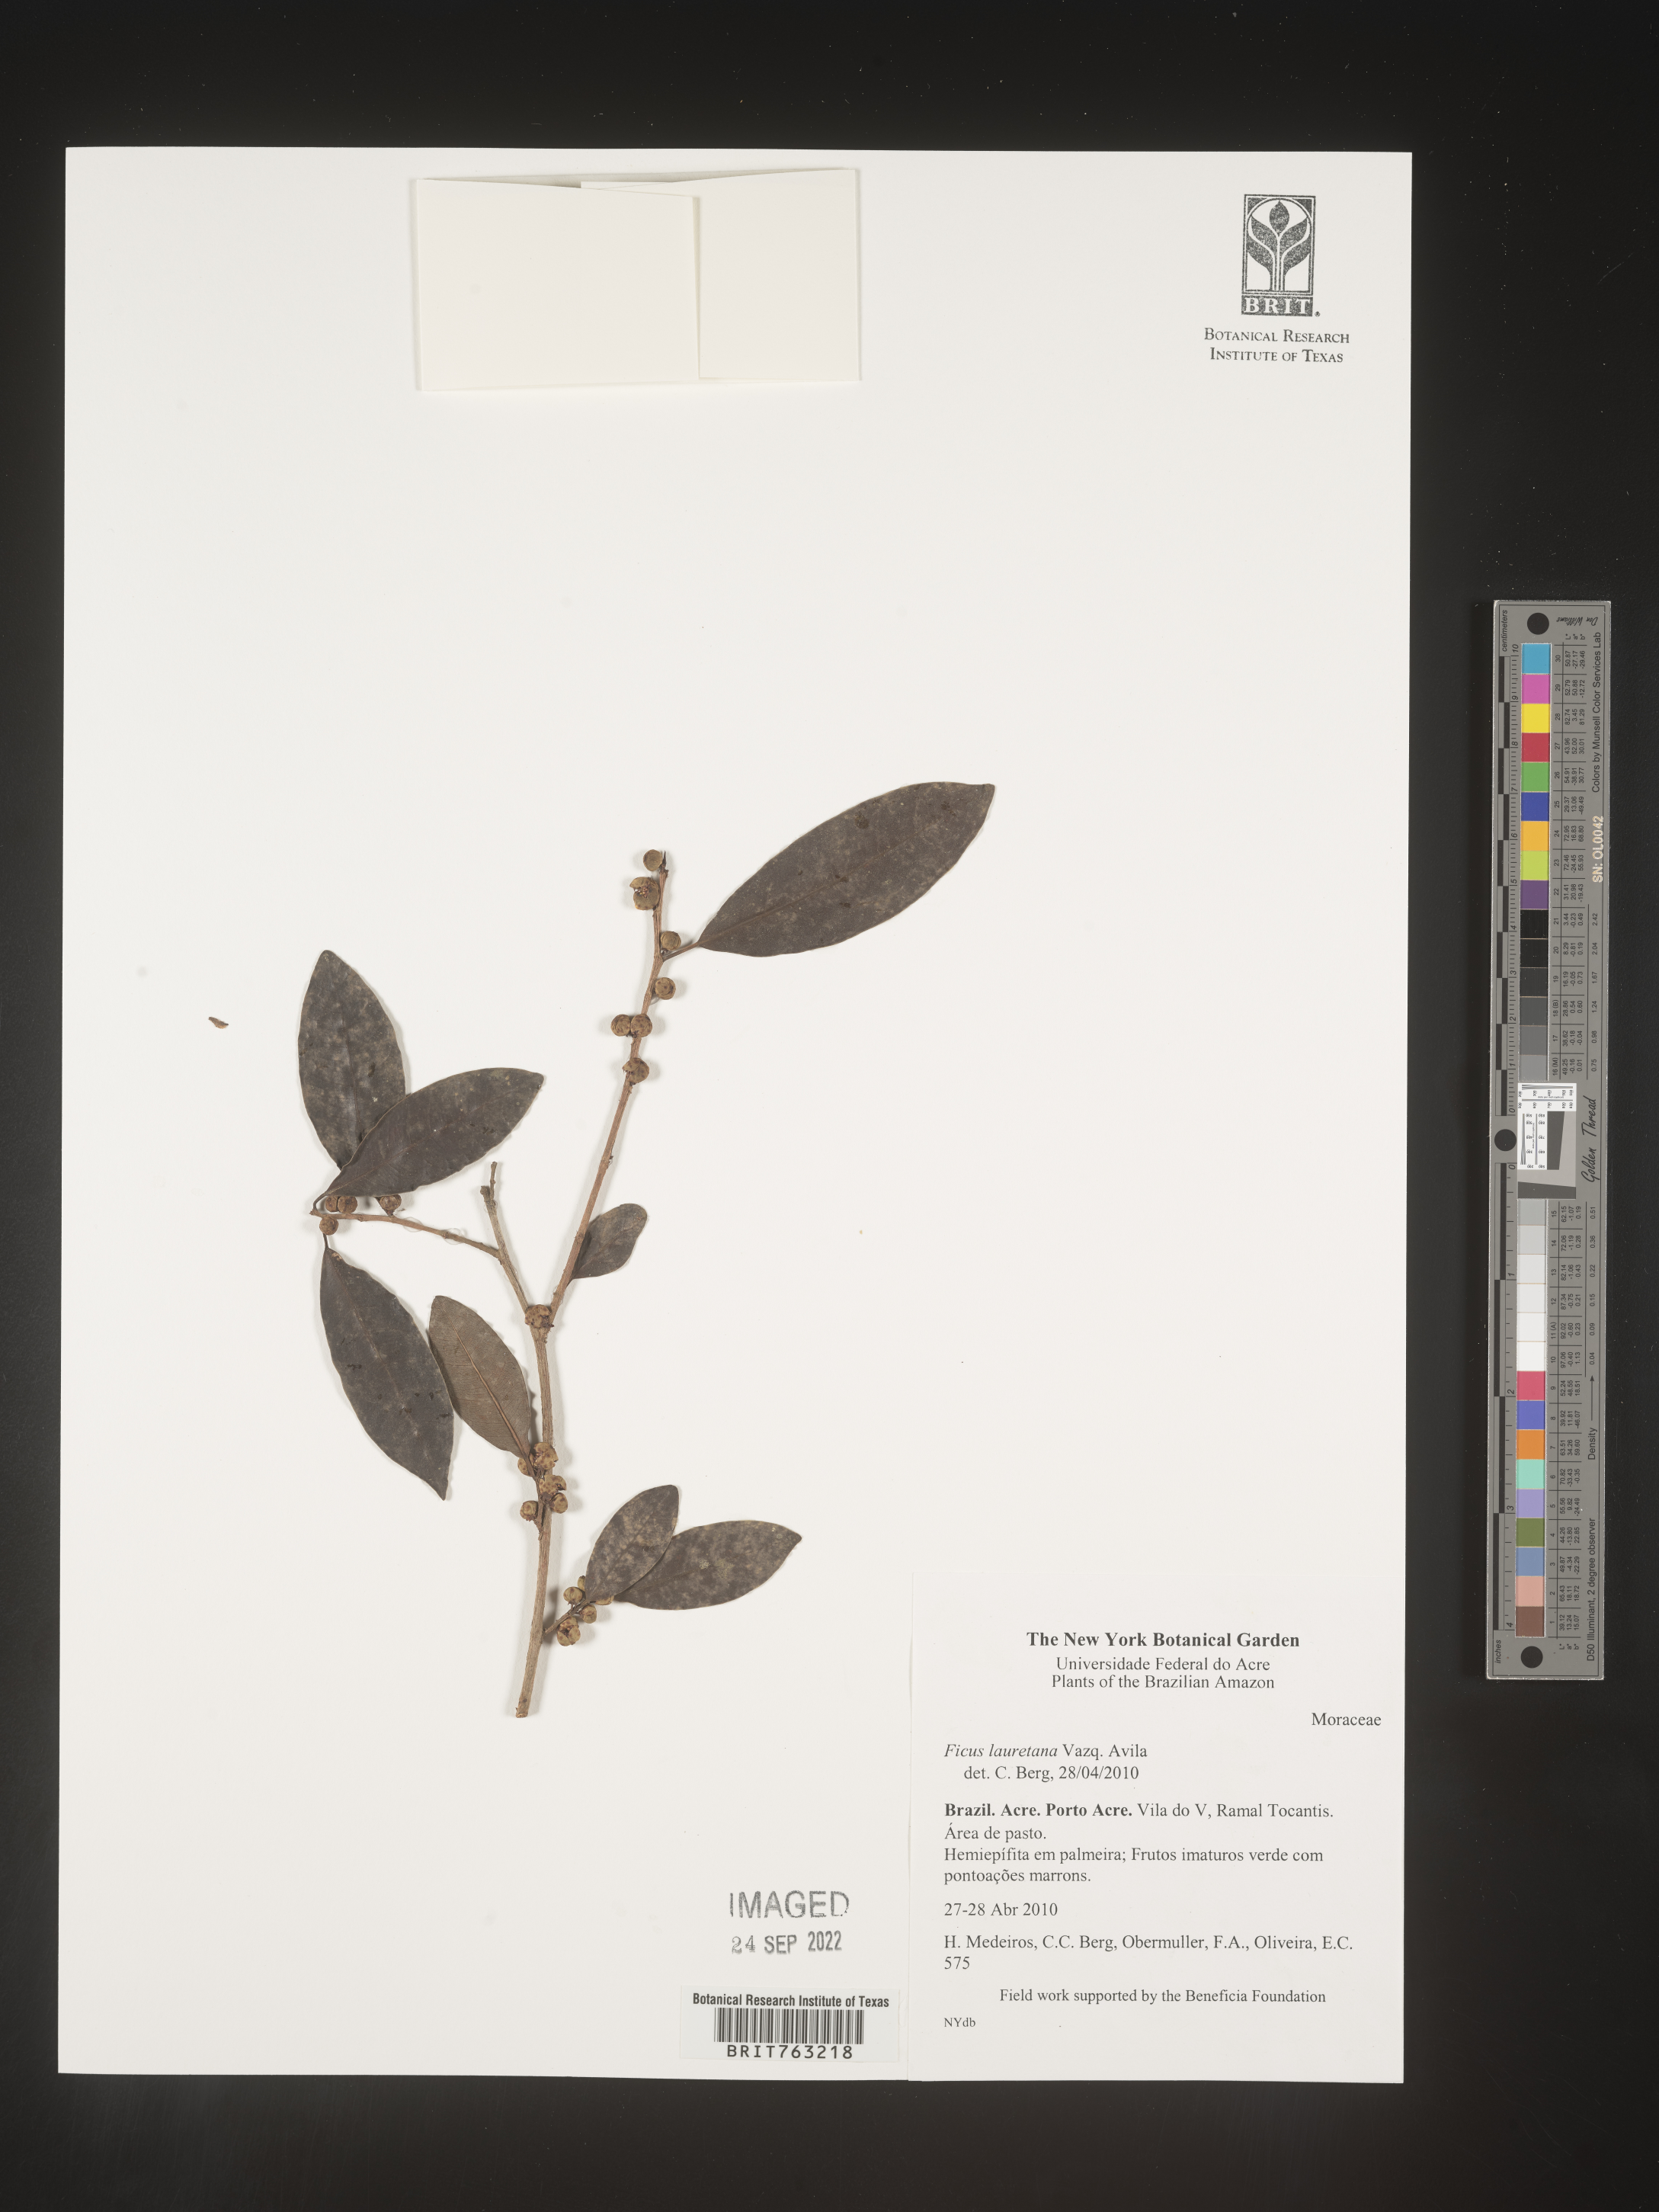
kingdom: Plantae
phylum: Tracheophyta
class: Magnoliopsida
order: Rosales
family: Moraceae
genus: Ficus
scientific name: Ficus lauretana
